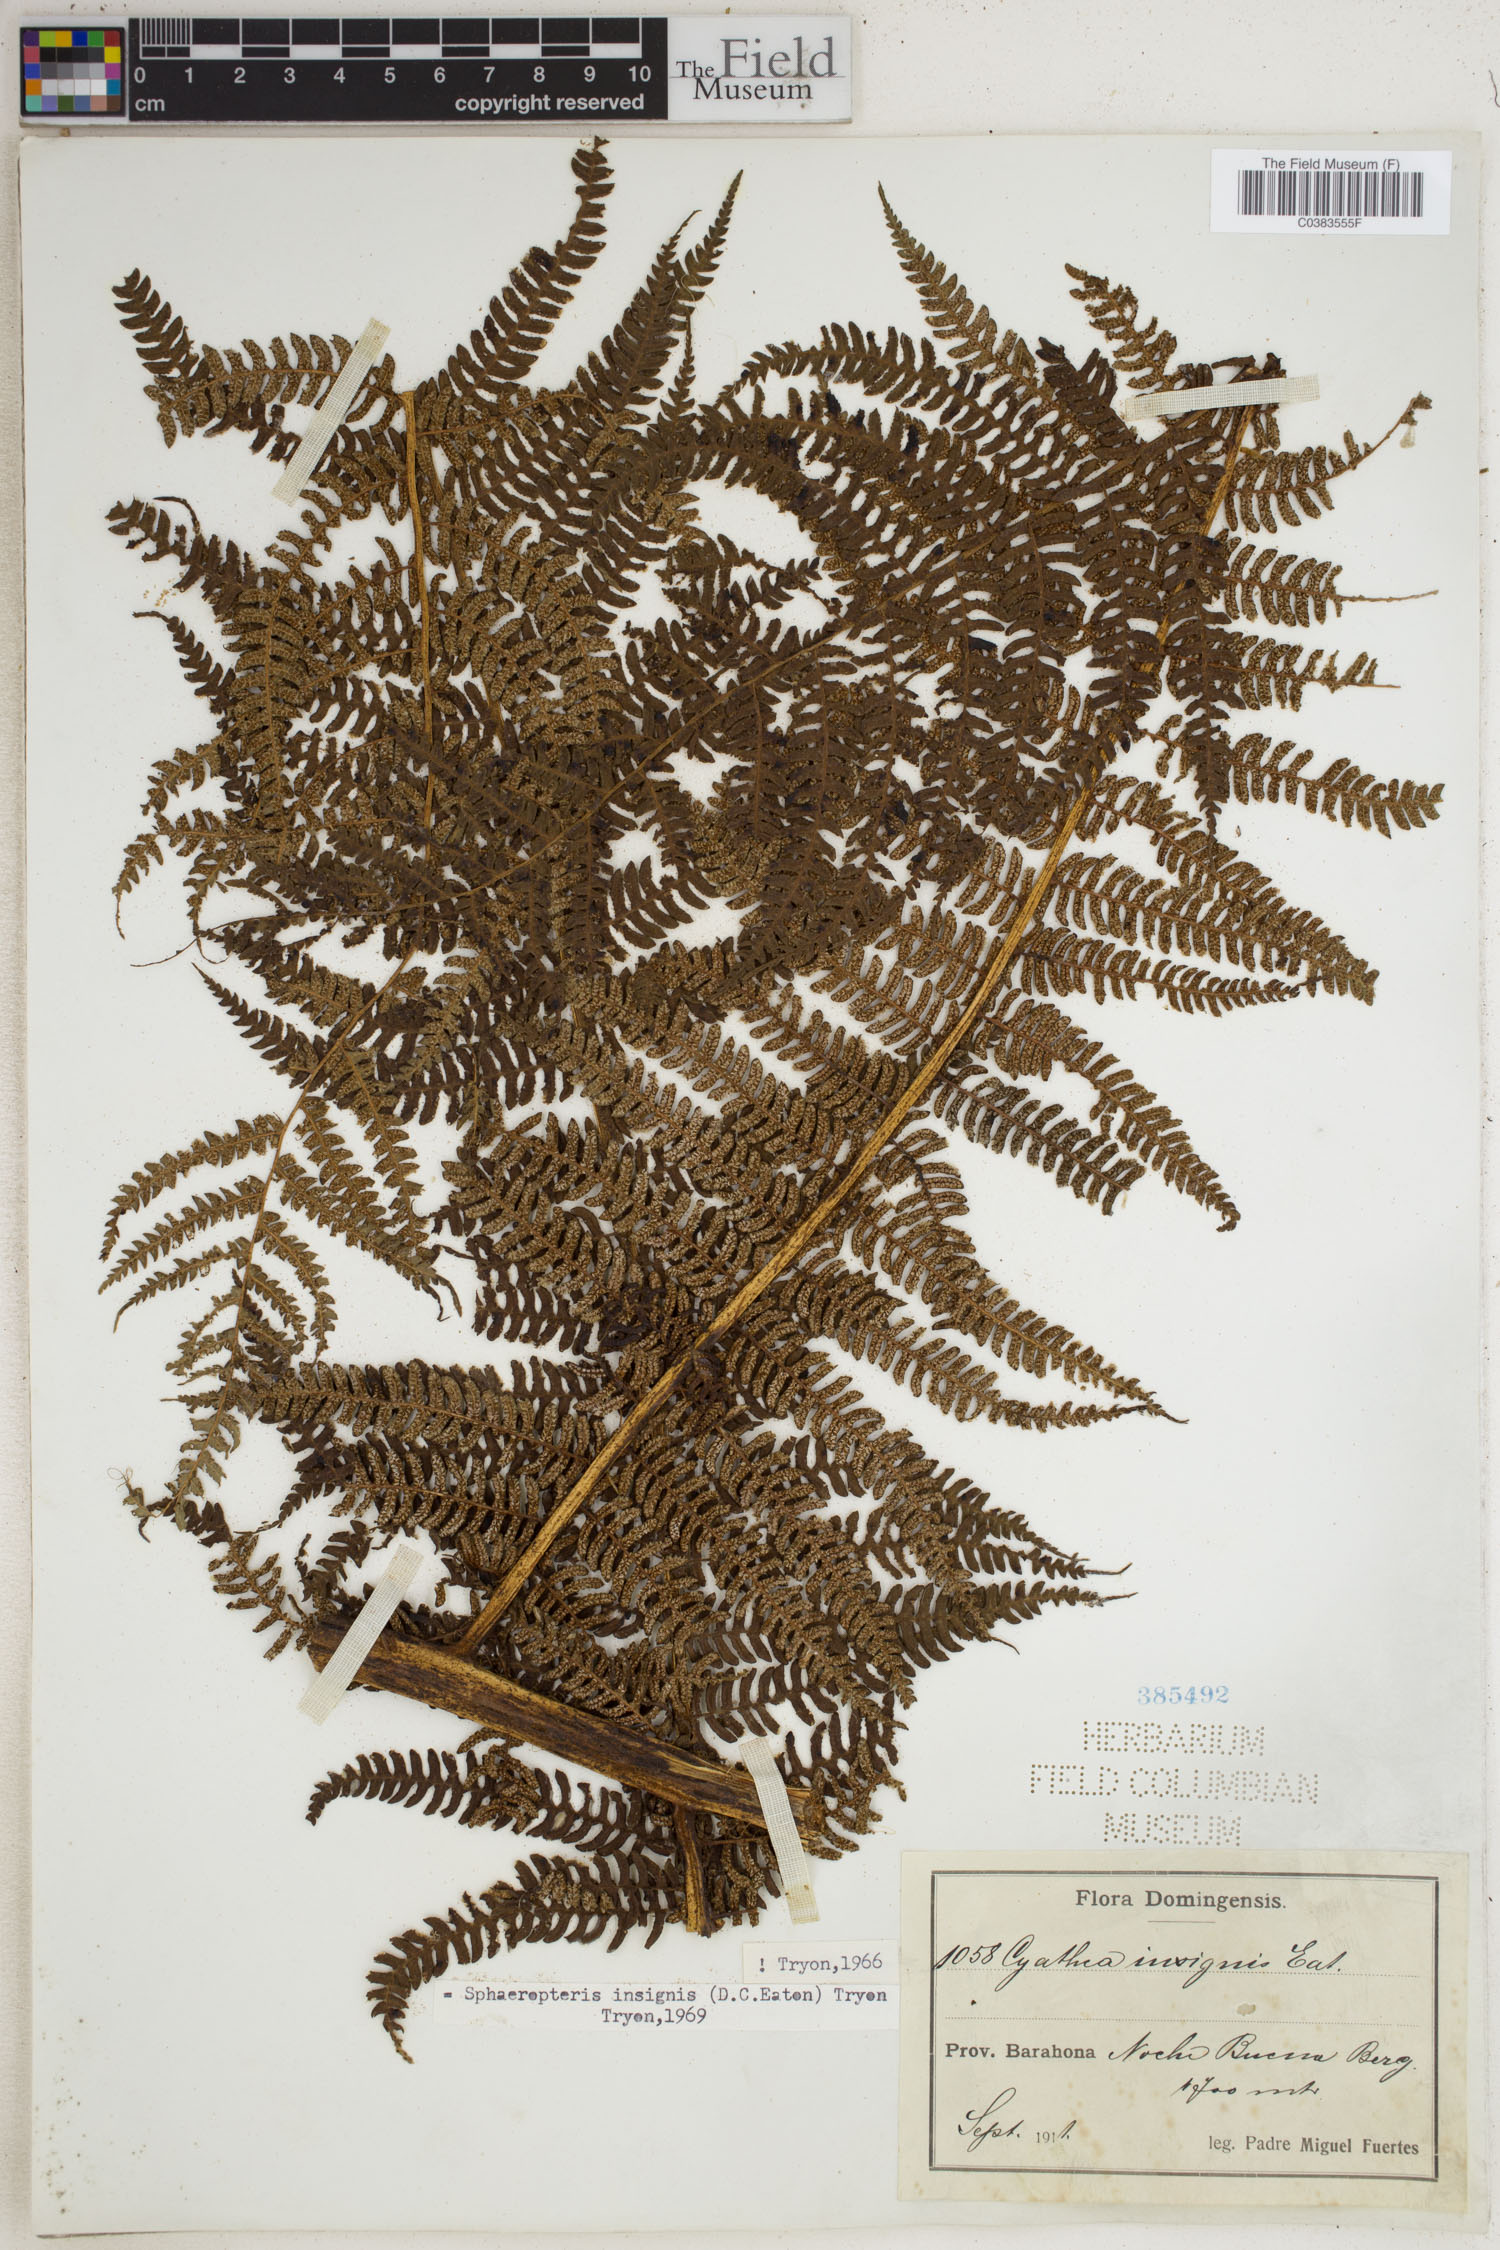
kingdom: Plantae
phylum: Tracheophyta
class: Polypodiopsida
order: Cyatheales
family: Cyatheaceae
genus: Sphaeropteris
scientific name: Sphaeropteris insignis
